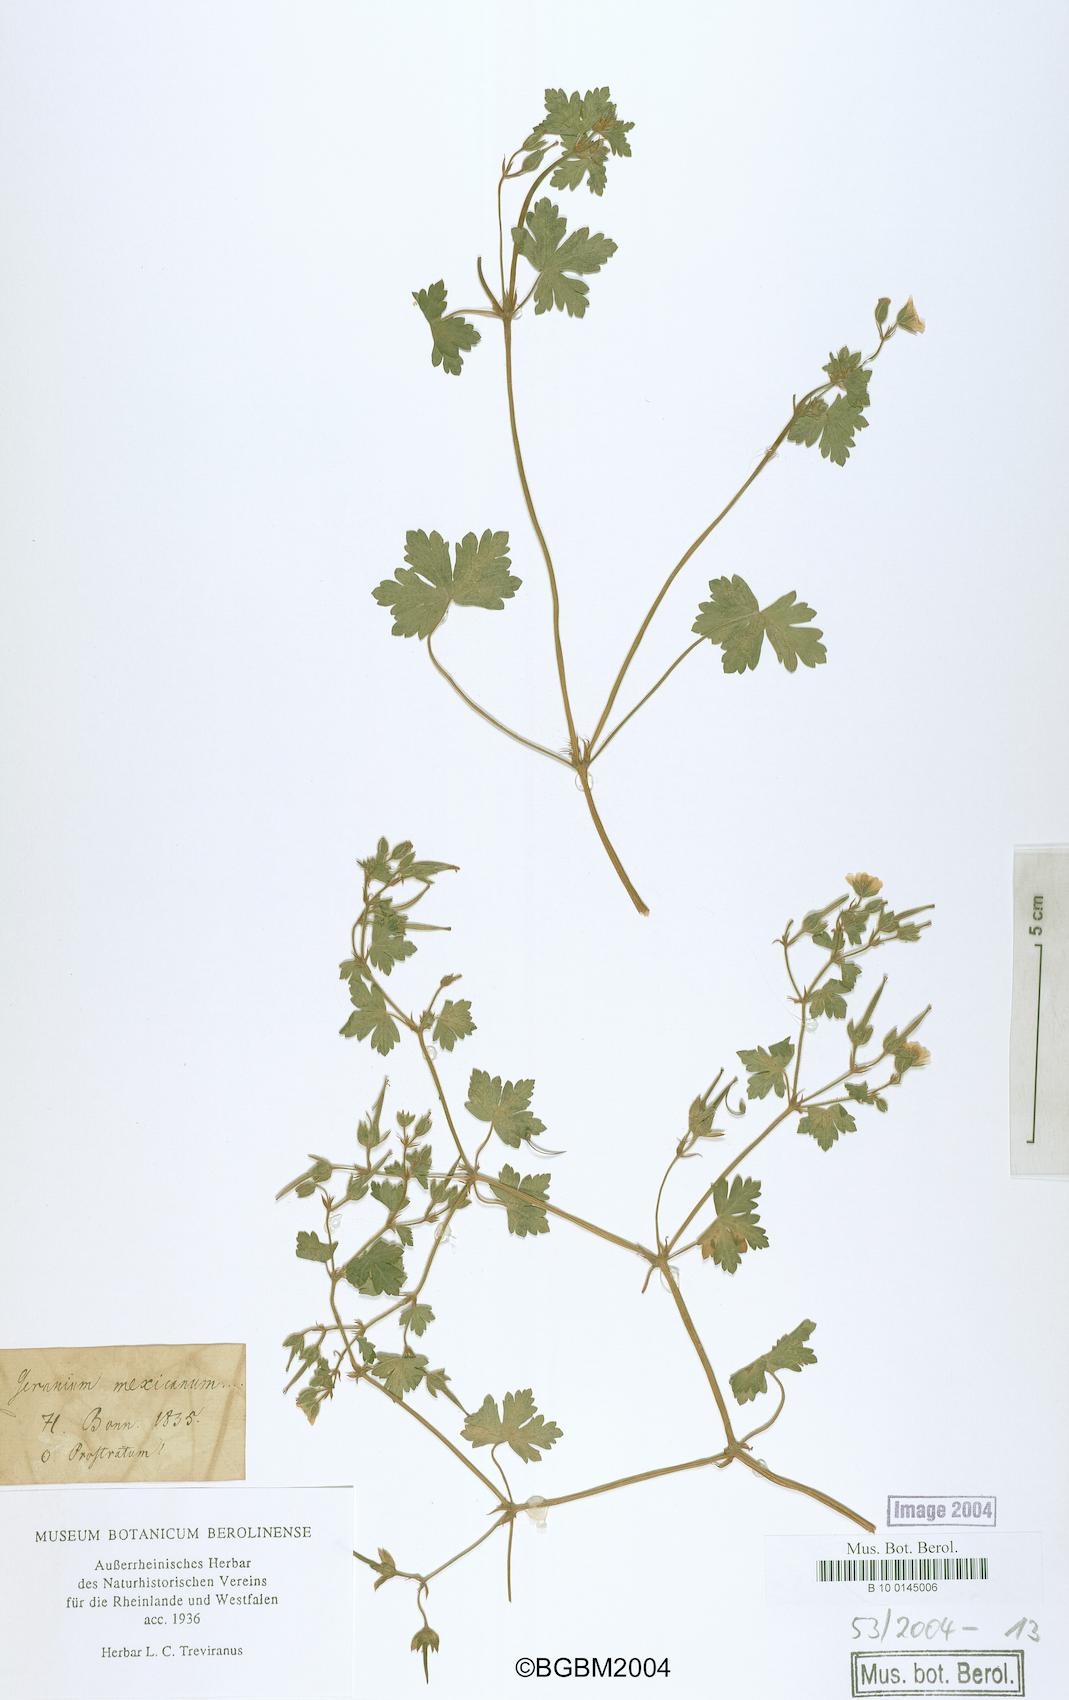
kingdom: Plantae
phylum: Tracheophyta
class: Magnoliopsida
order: Geraniales
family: Geraniaceae
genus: Geranium
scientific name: Geranium seemannii
